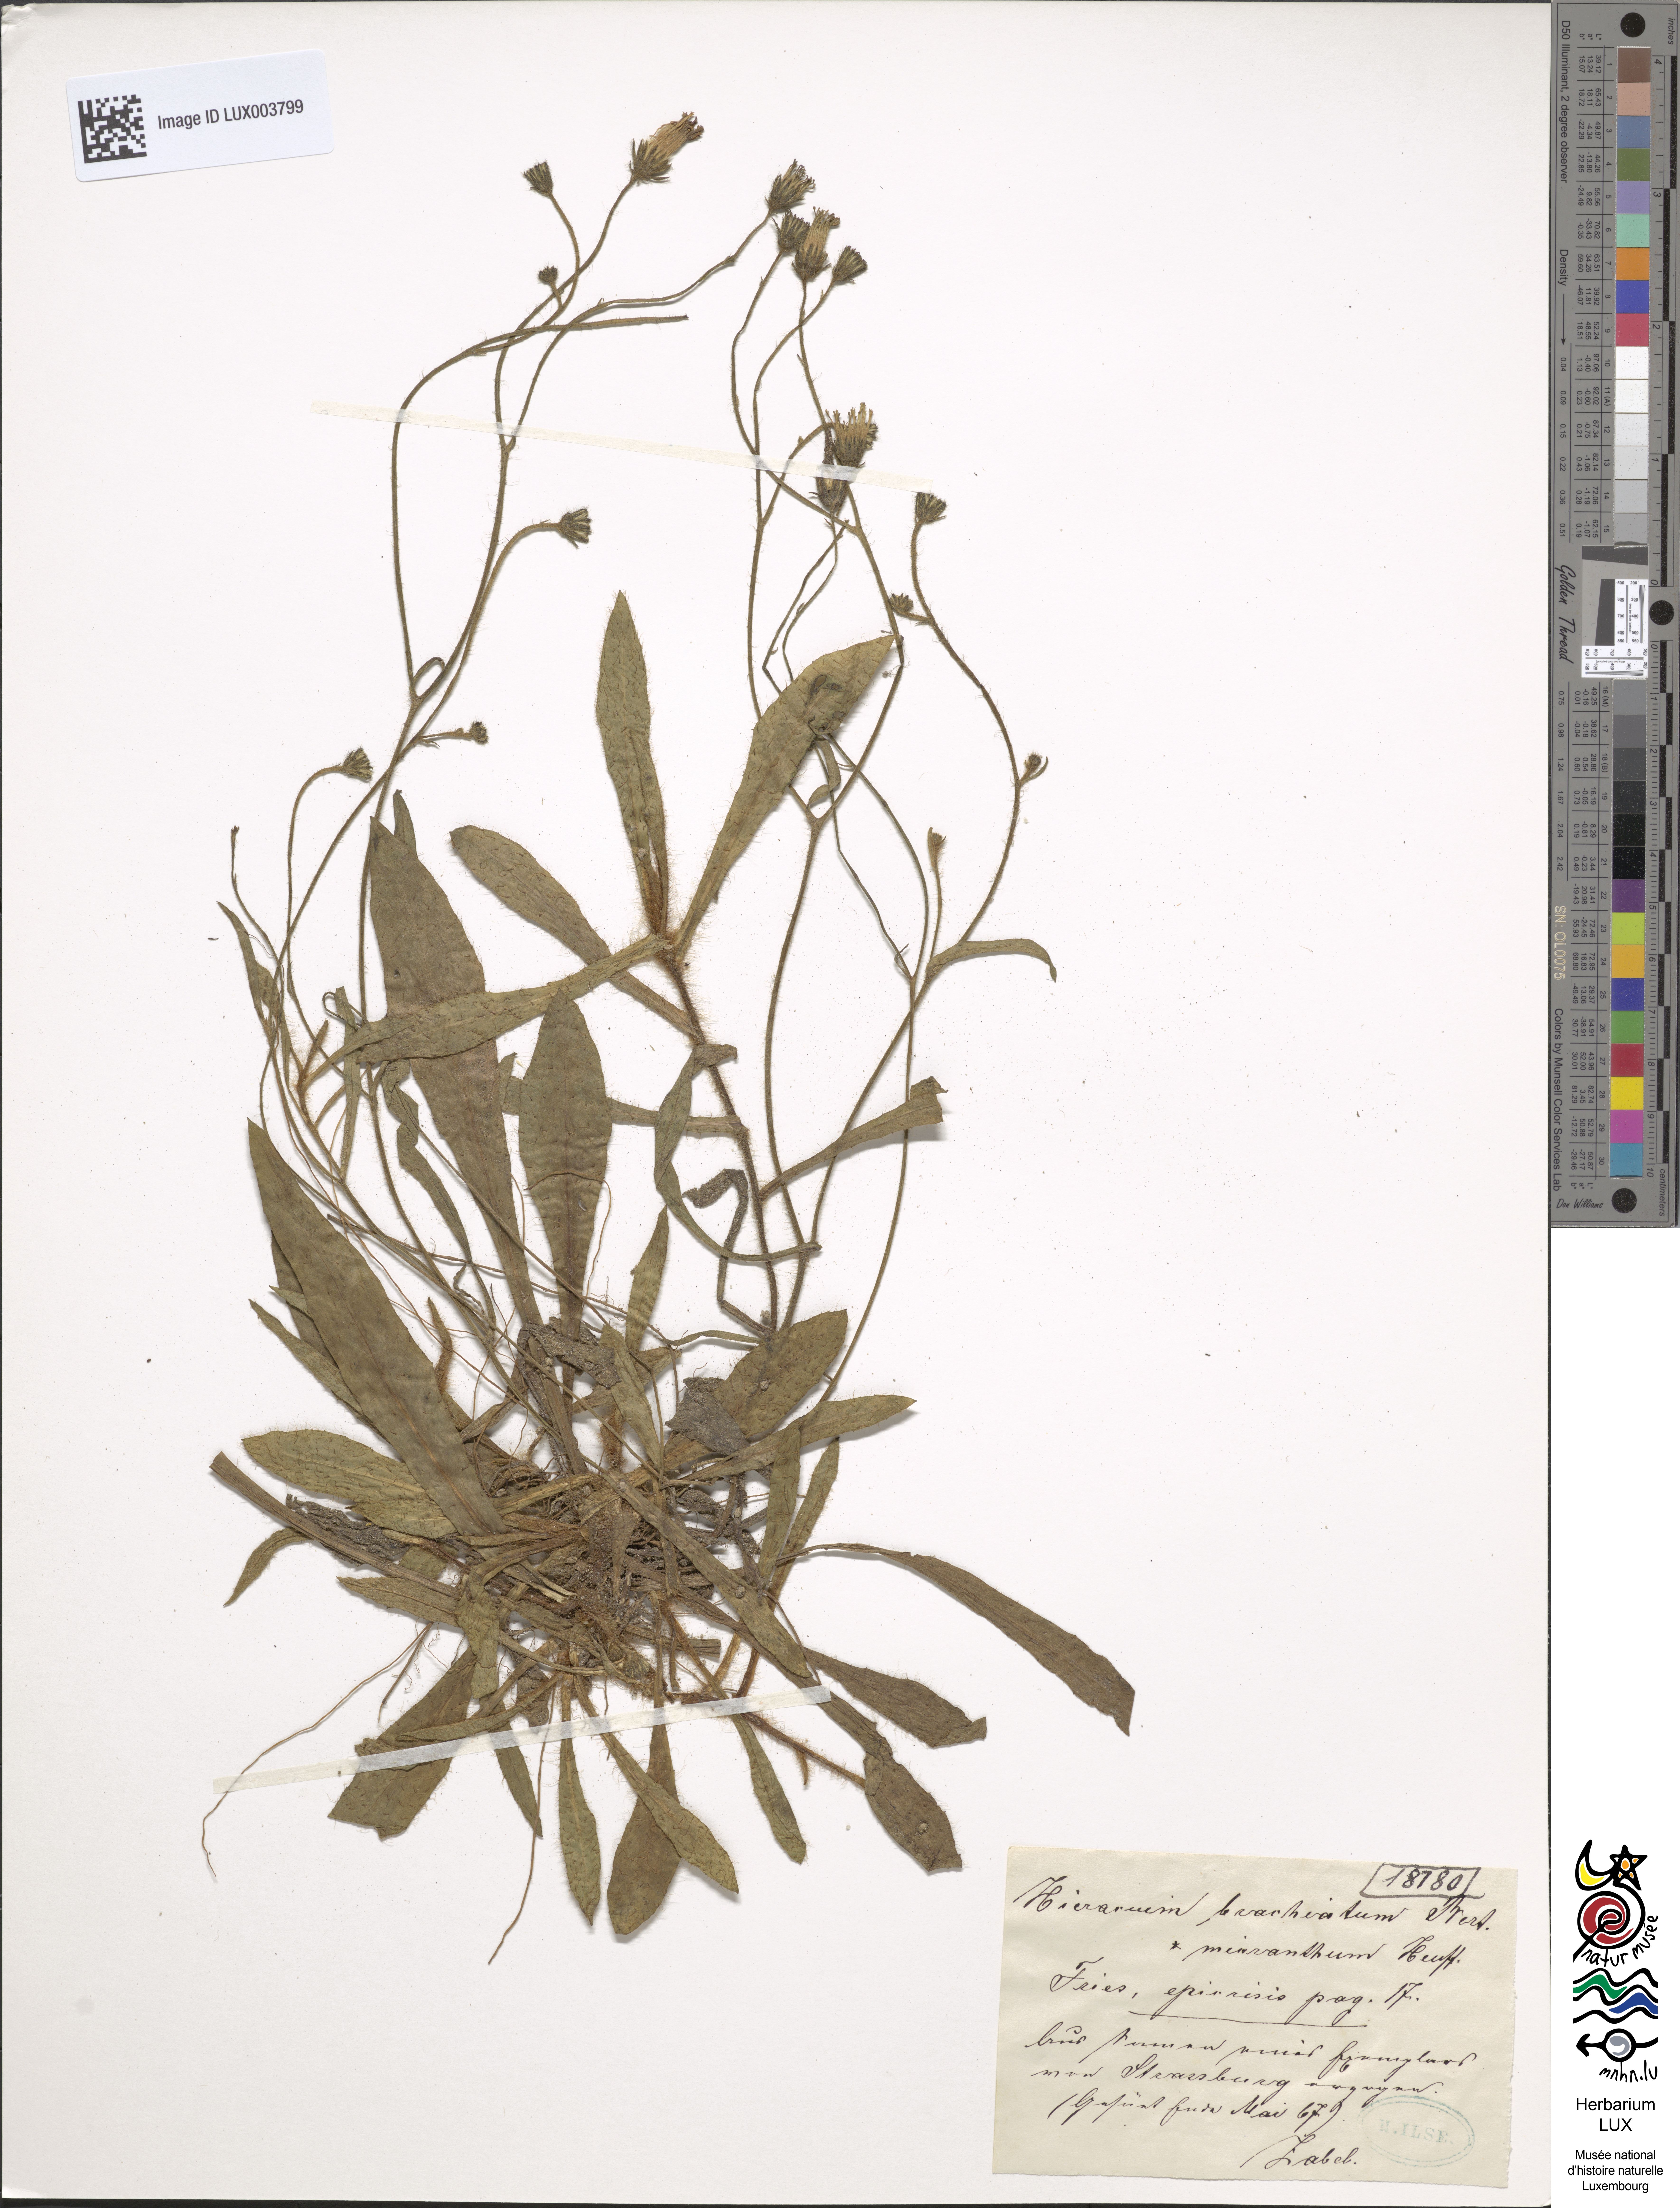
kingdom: Plantae
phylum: Tracheophyta
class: Magnoliopsida
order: Asterales
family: Asteraceae
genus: Pilosella
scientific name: Pilosella acutifolia
